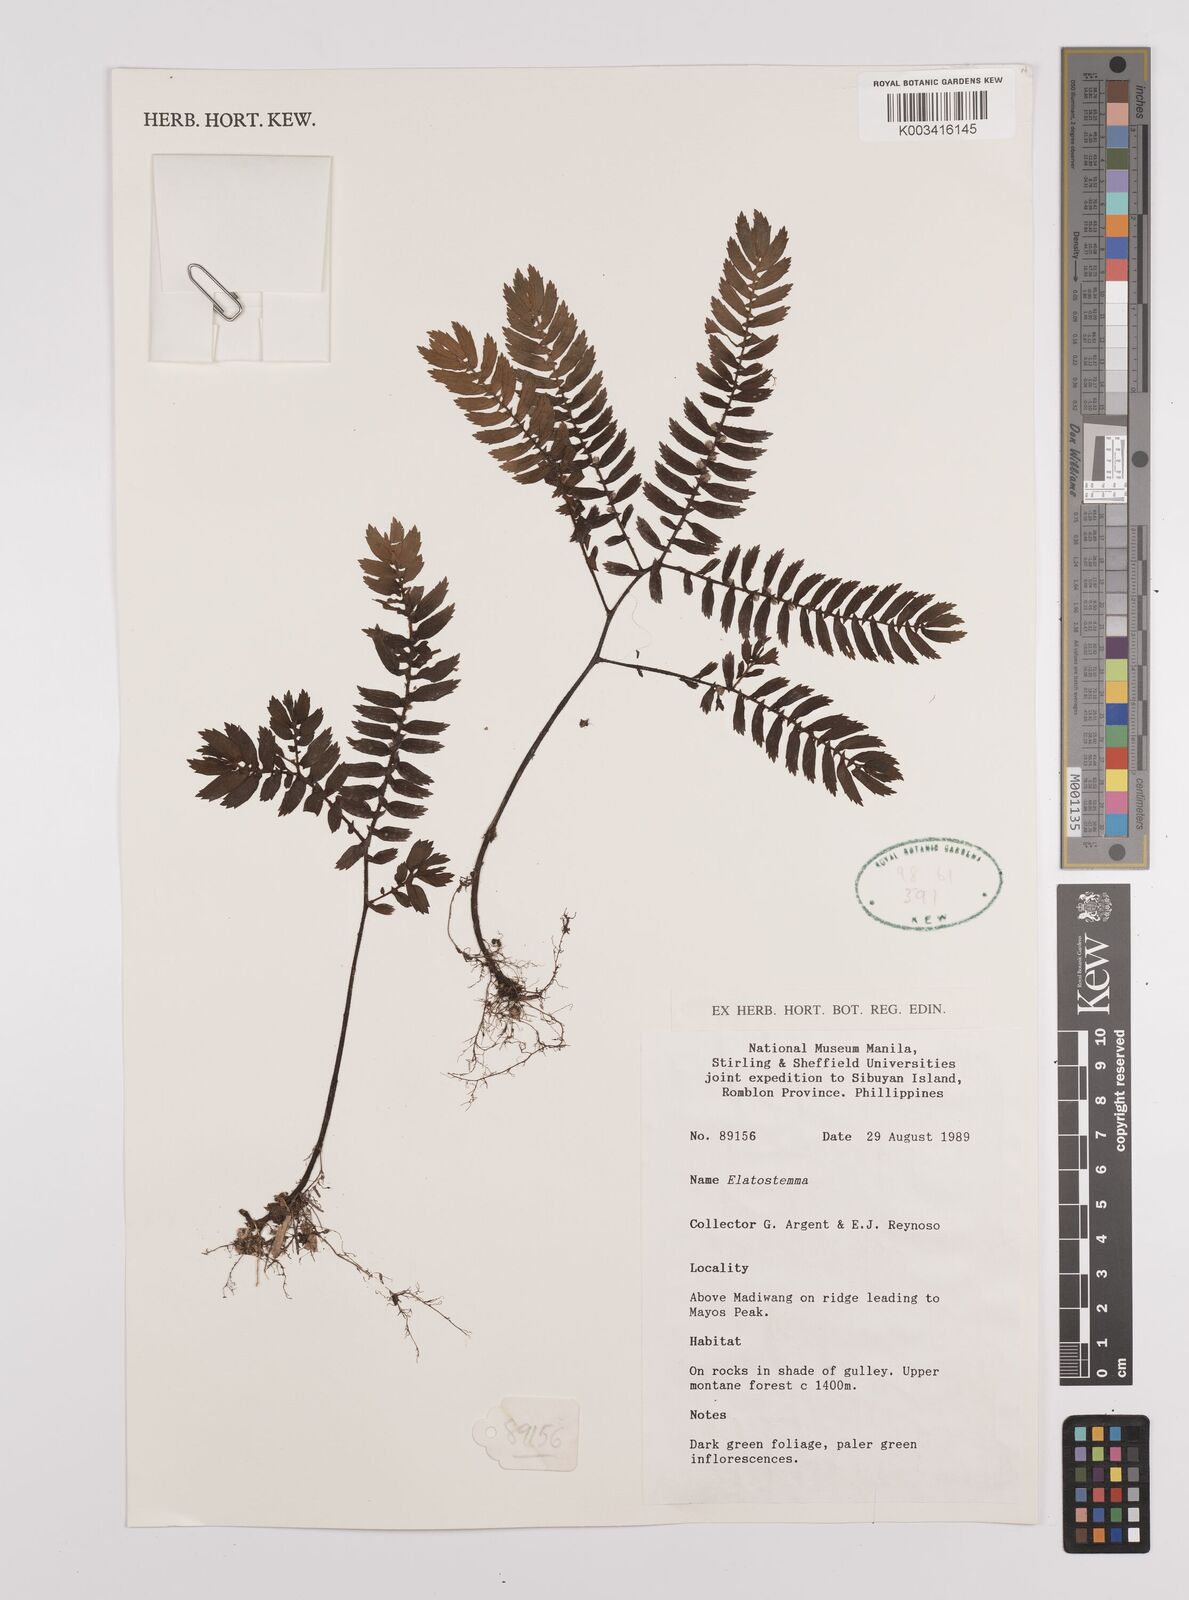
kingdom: Plantae
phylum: Tracheophyta
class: Magnoliopsida
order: Rosales
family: Urticaceae
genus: Elatostema
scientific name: Elatostema
